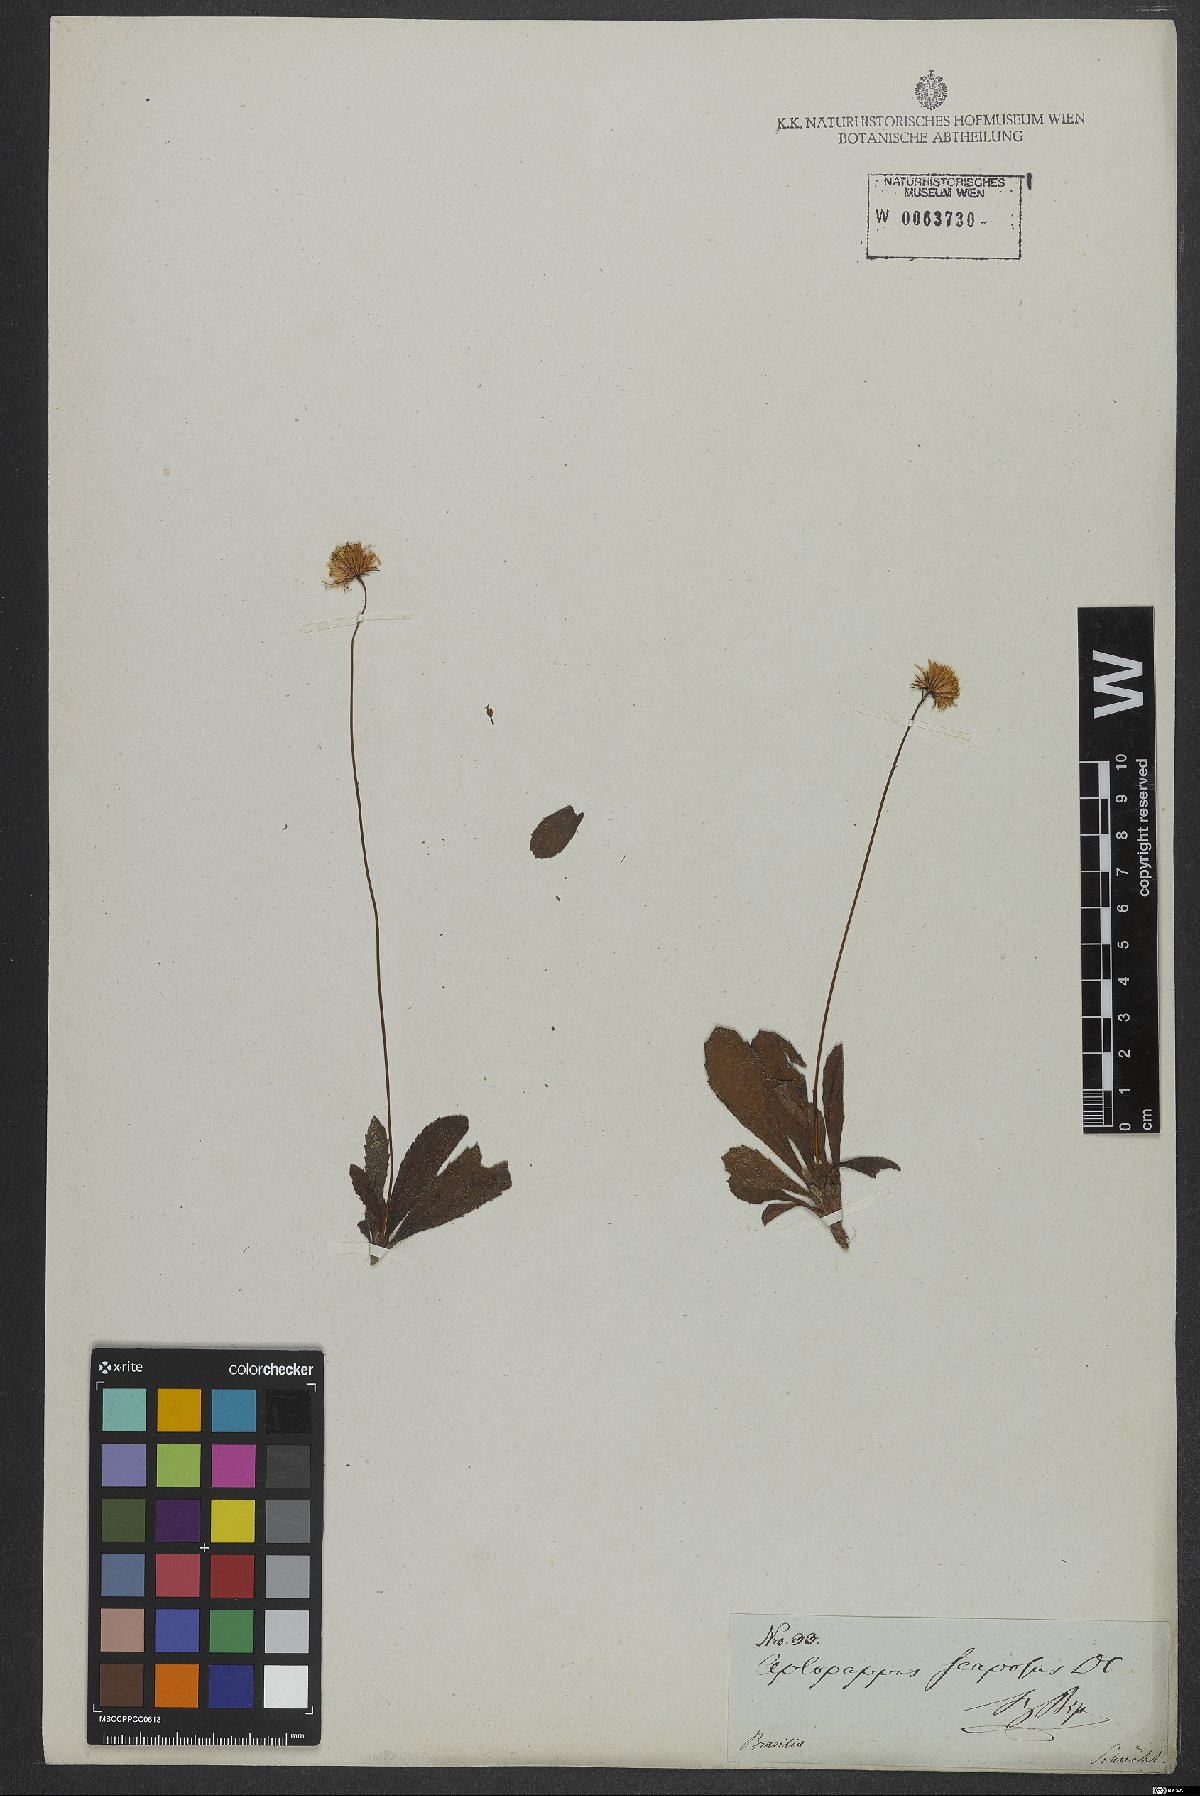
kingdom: Plantae
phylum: Tracheophyta
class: Magnoliopsida
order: Asterales
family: Asteraceae
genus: Inulopsis
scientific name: Inulopsis scaposa
